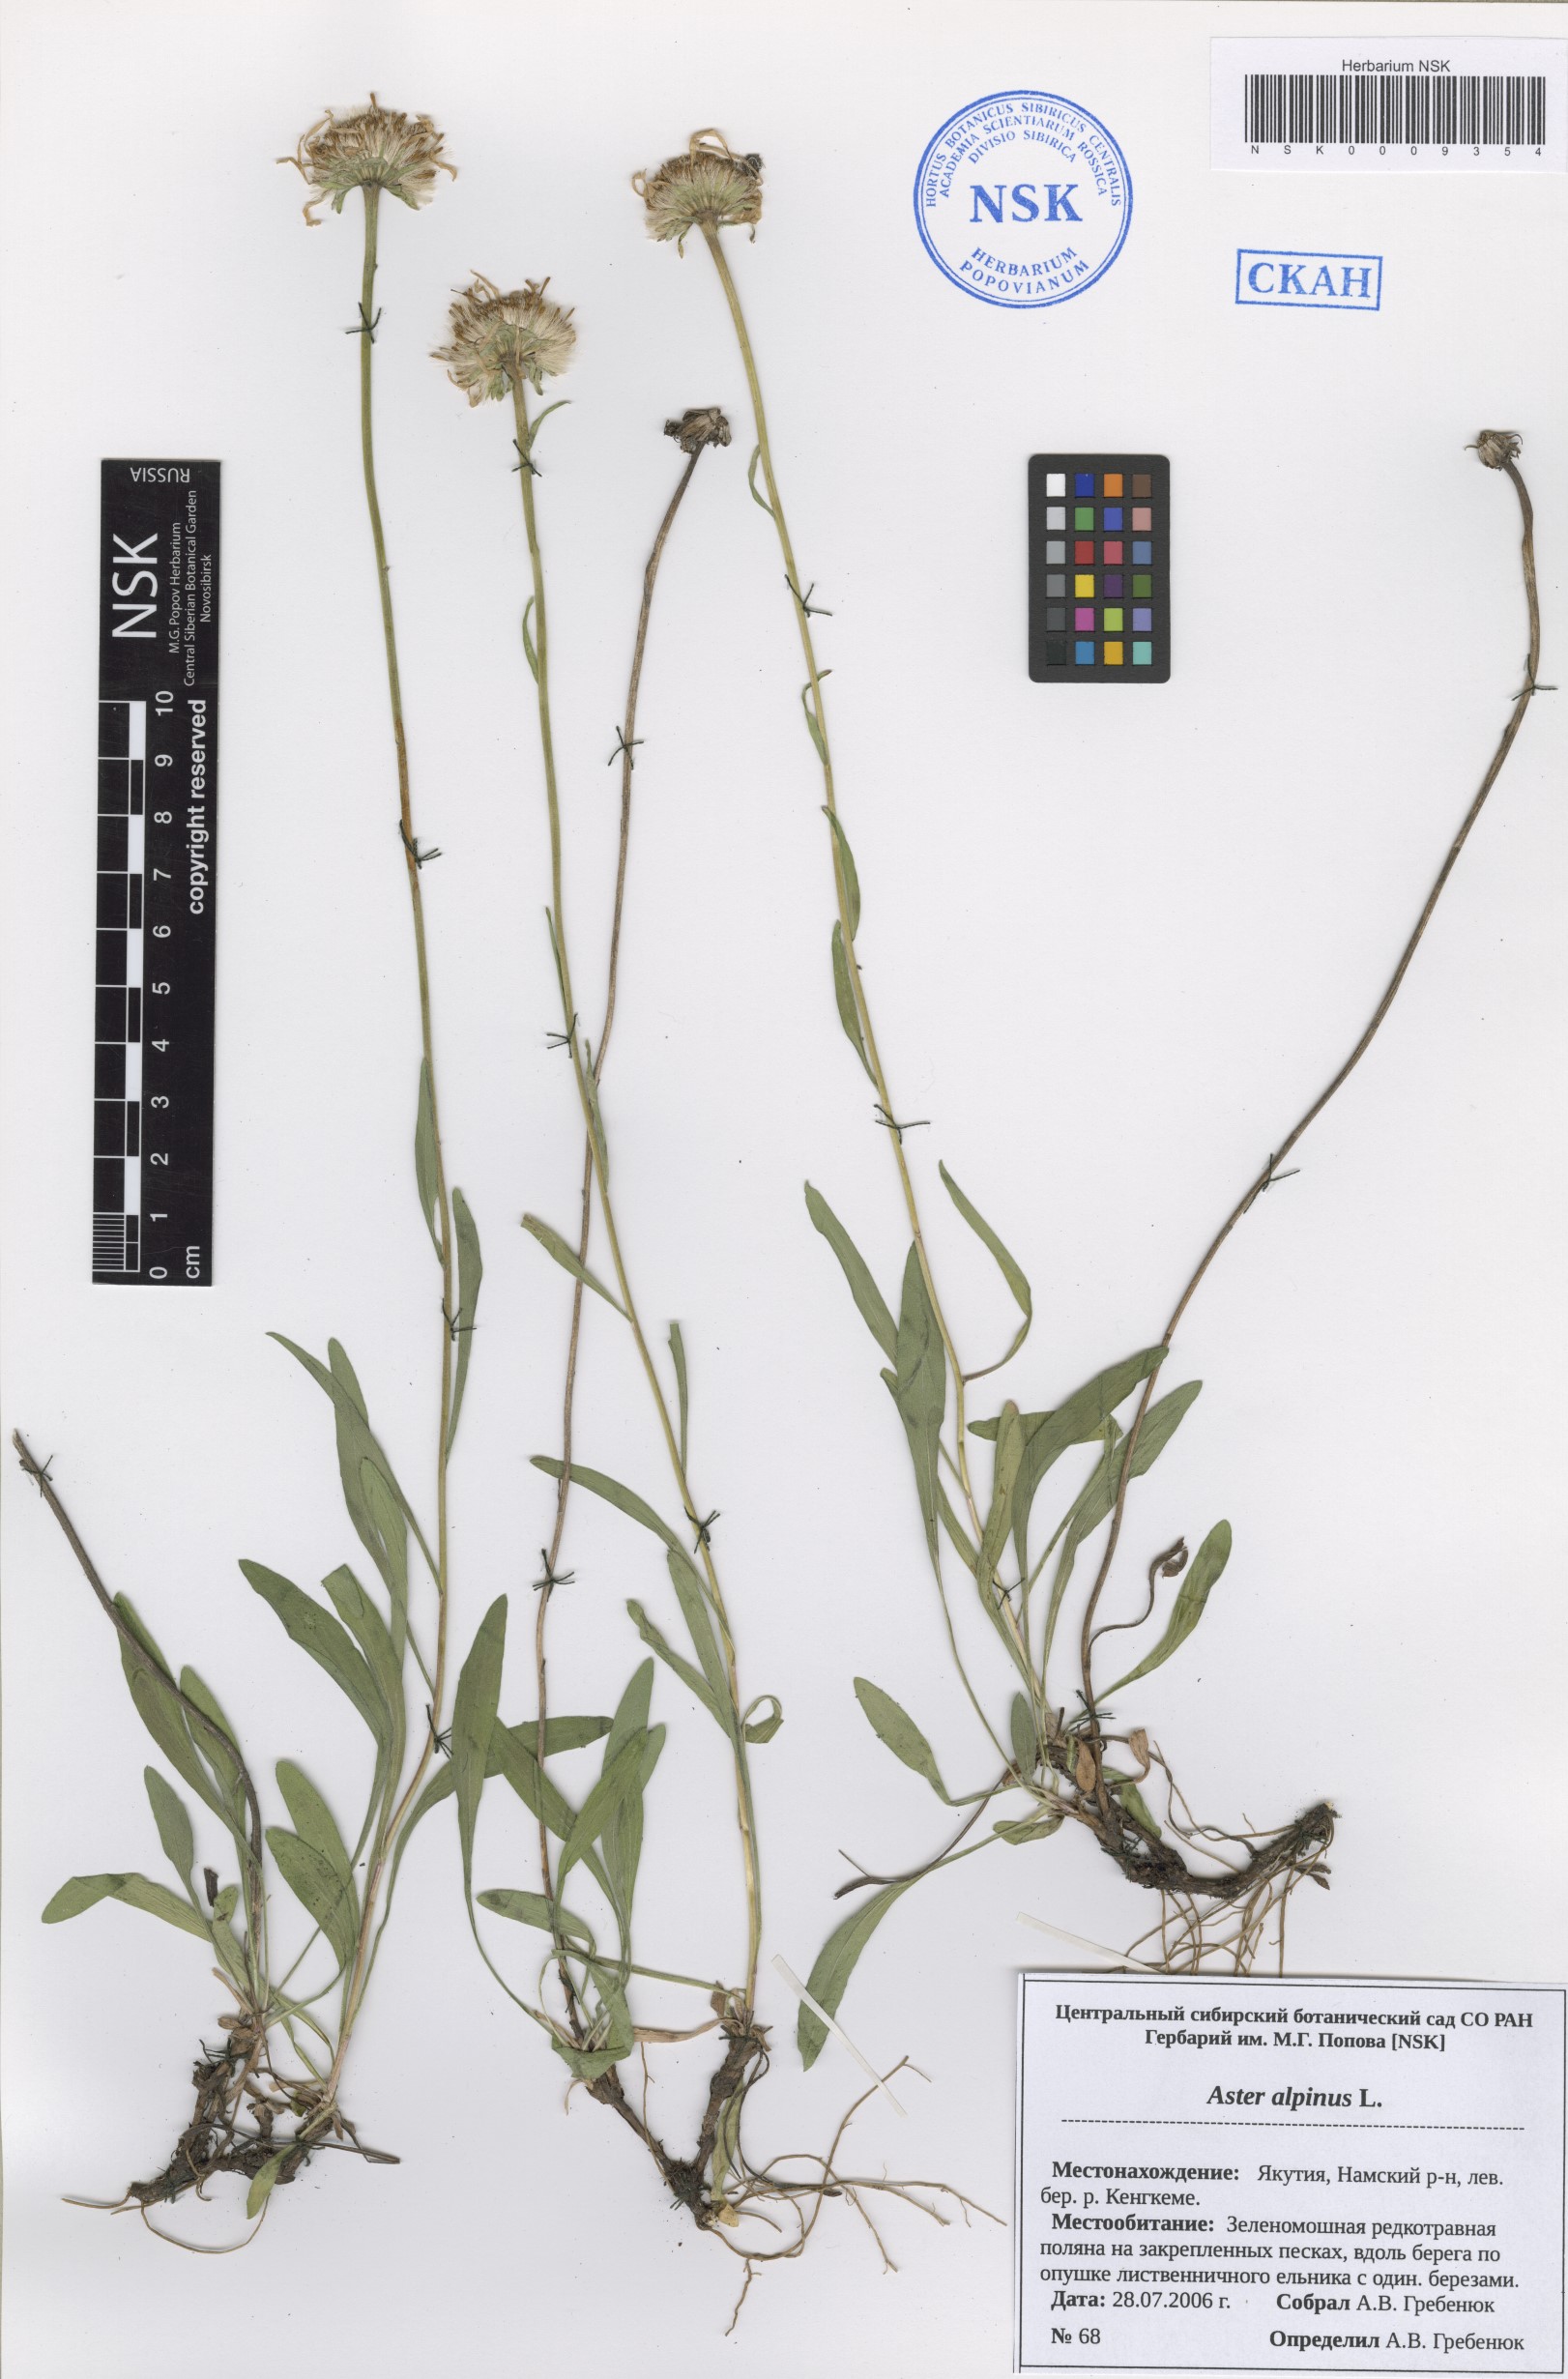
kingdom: Plantae
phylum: Tracheophyta
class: Magnoliopsida
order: Asterales
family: Asteraceae
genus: Aster
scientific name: Aster alpinus
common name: Alpine aster
